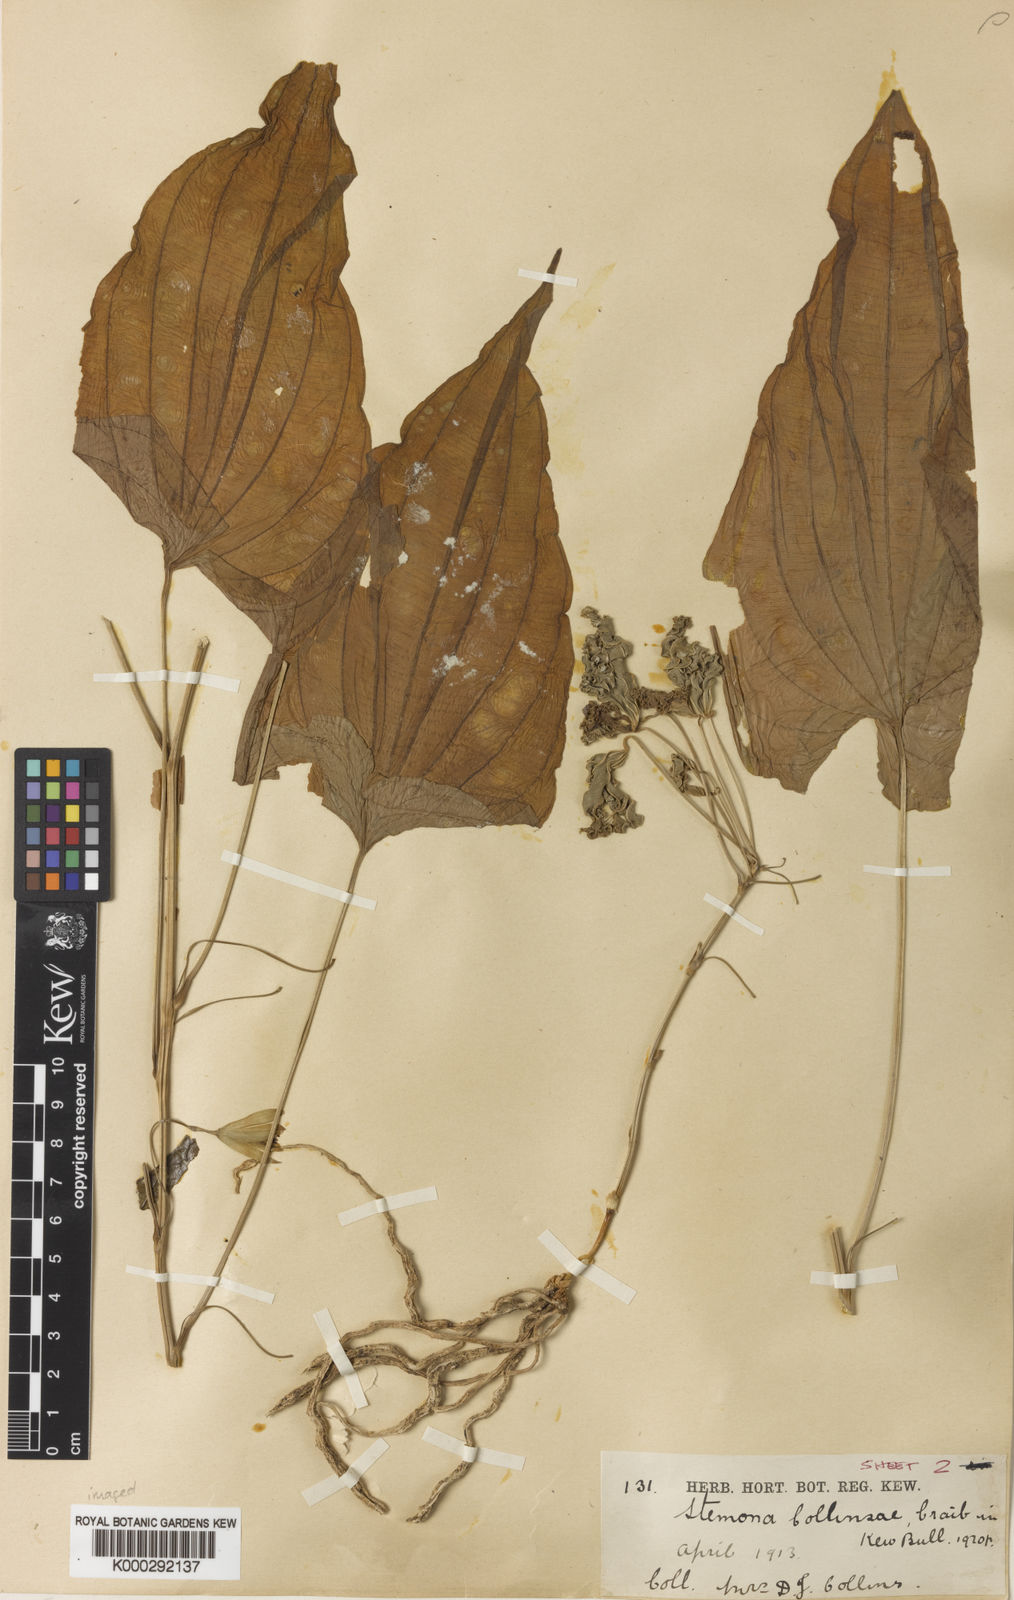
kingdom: Plantae
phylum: Tracheophyta
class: Liliopsida
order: Pandanales
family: Stemonaceae
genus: Stemona
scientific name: Stemona collinsiae
